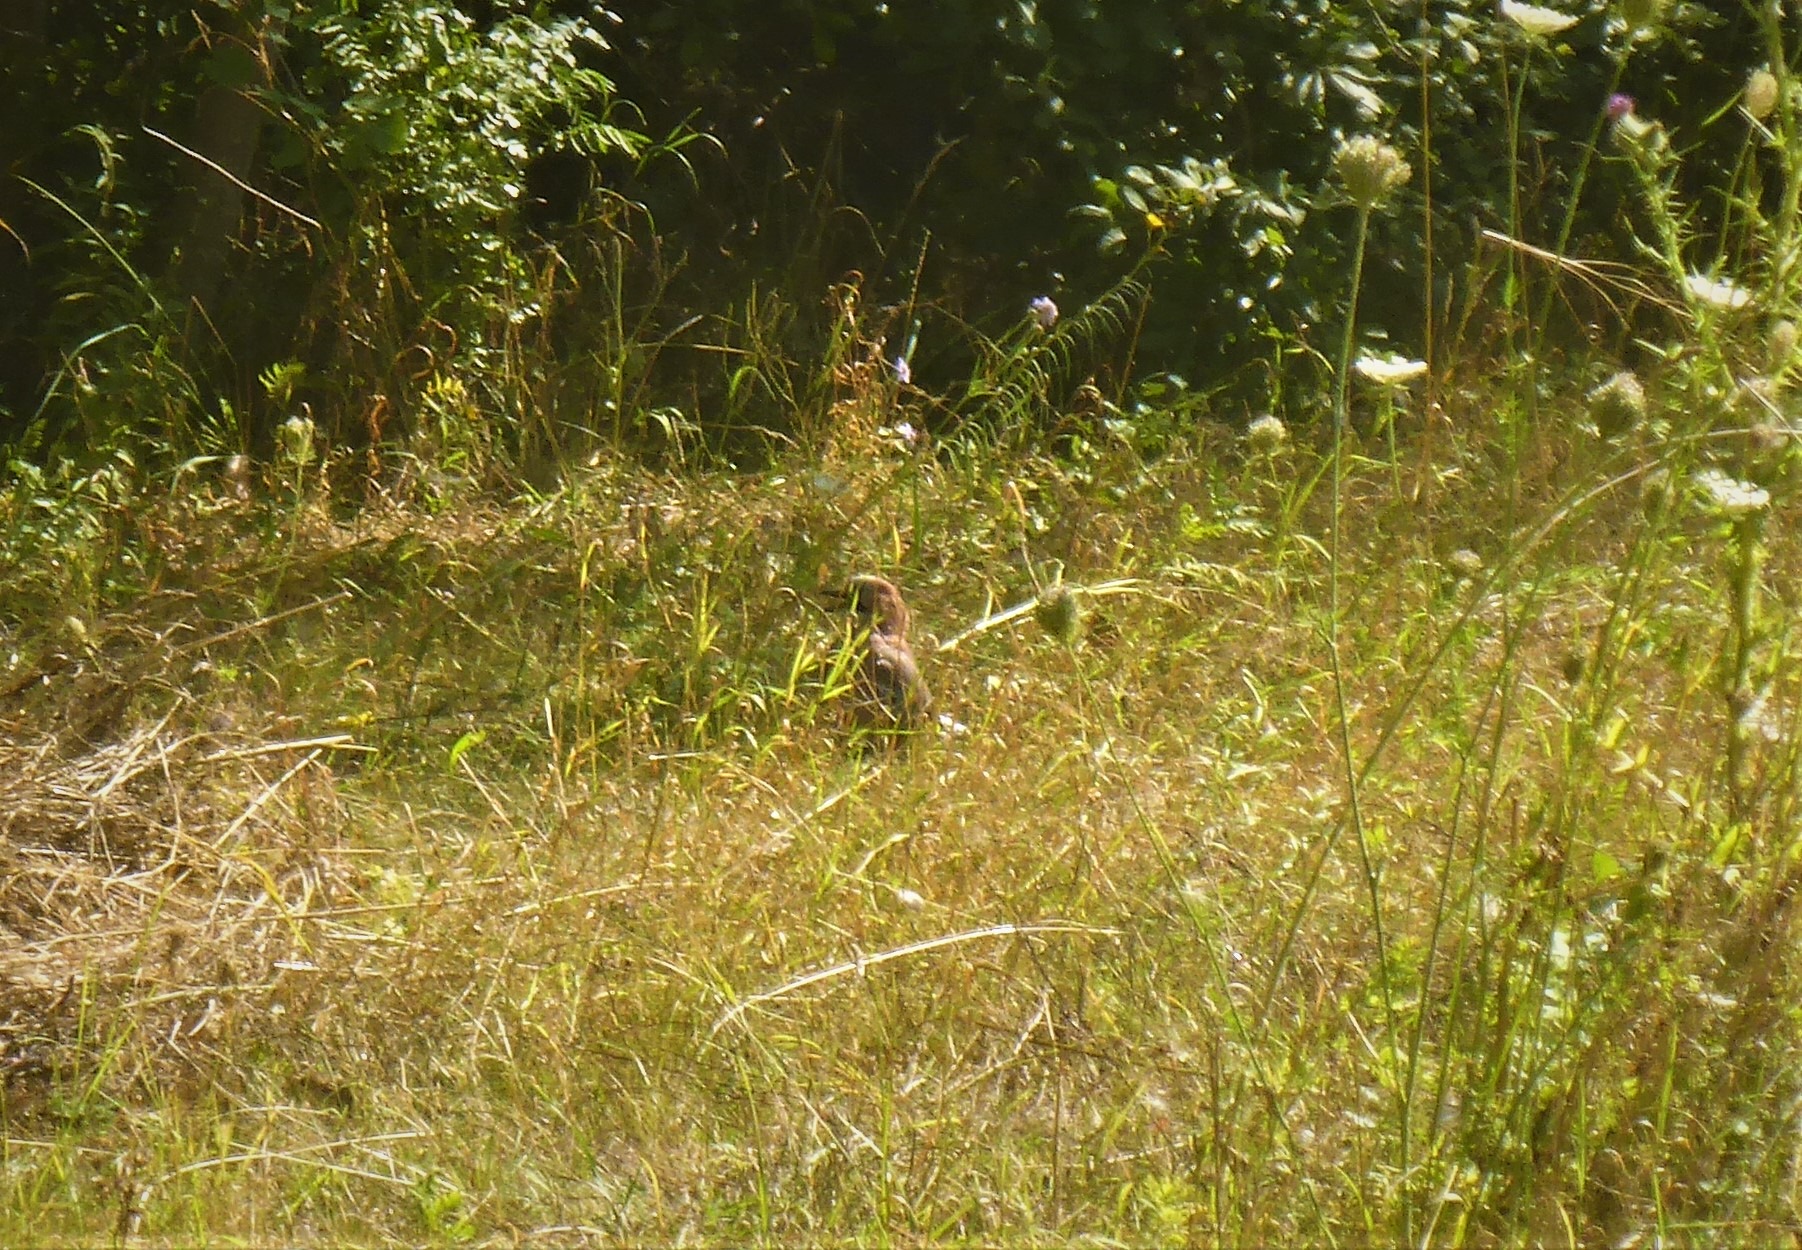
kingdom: Animalia
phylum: Chordata
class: Aves
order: Passeriformes
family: Corvidae
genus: Garrulus
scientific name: Garrulus glandarius
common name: Skovskade
